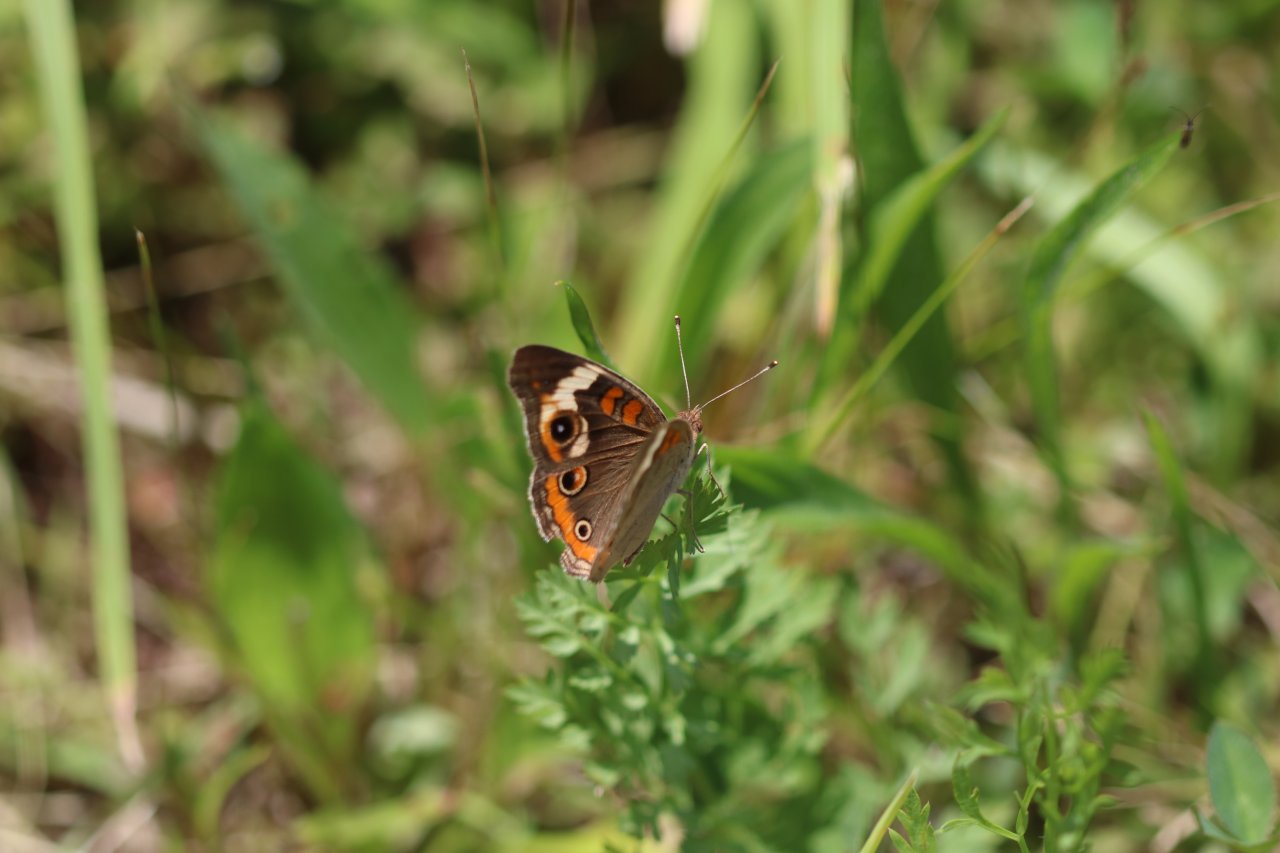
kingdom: Animalia
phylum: Arthropoda
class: Insecta
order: Lepidoptera
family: Nymphalidae
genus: Junonia
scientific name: Junonia coenia
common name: Common Buckeye
